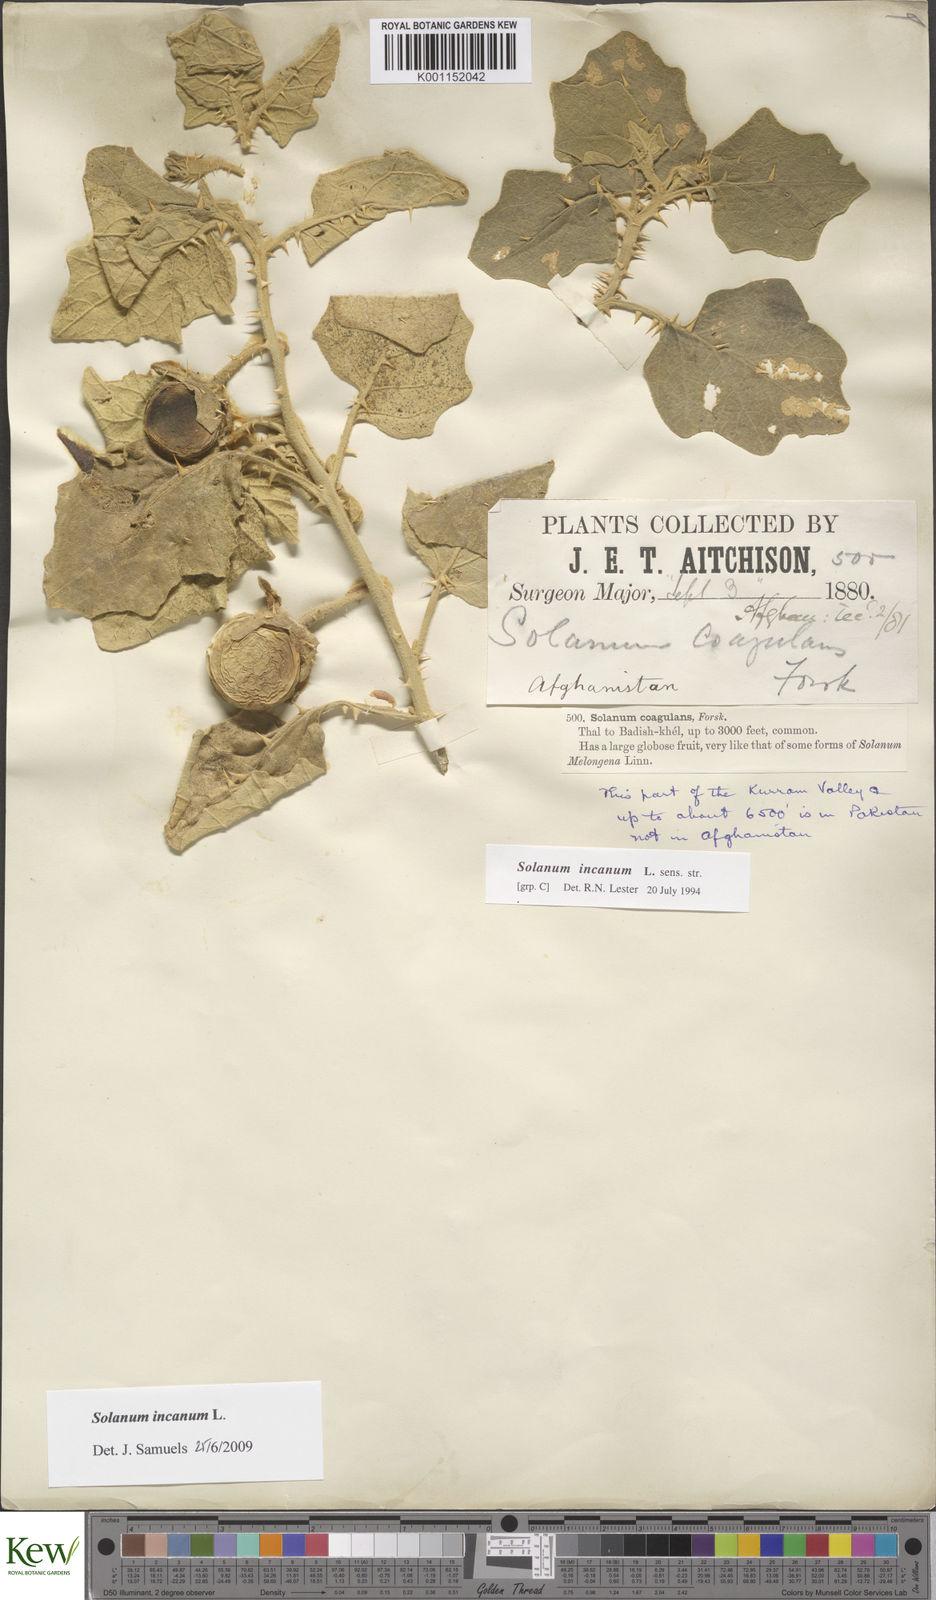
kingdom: Plantae
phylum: Tracheophyta
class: Magnoliopsida
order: Solanales
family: Solanaceae
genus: Solanum
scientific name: Solanum incanum
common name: Bitter apple
